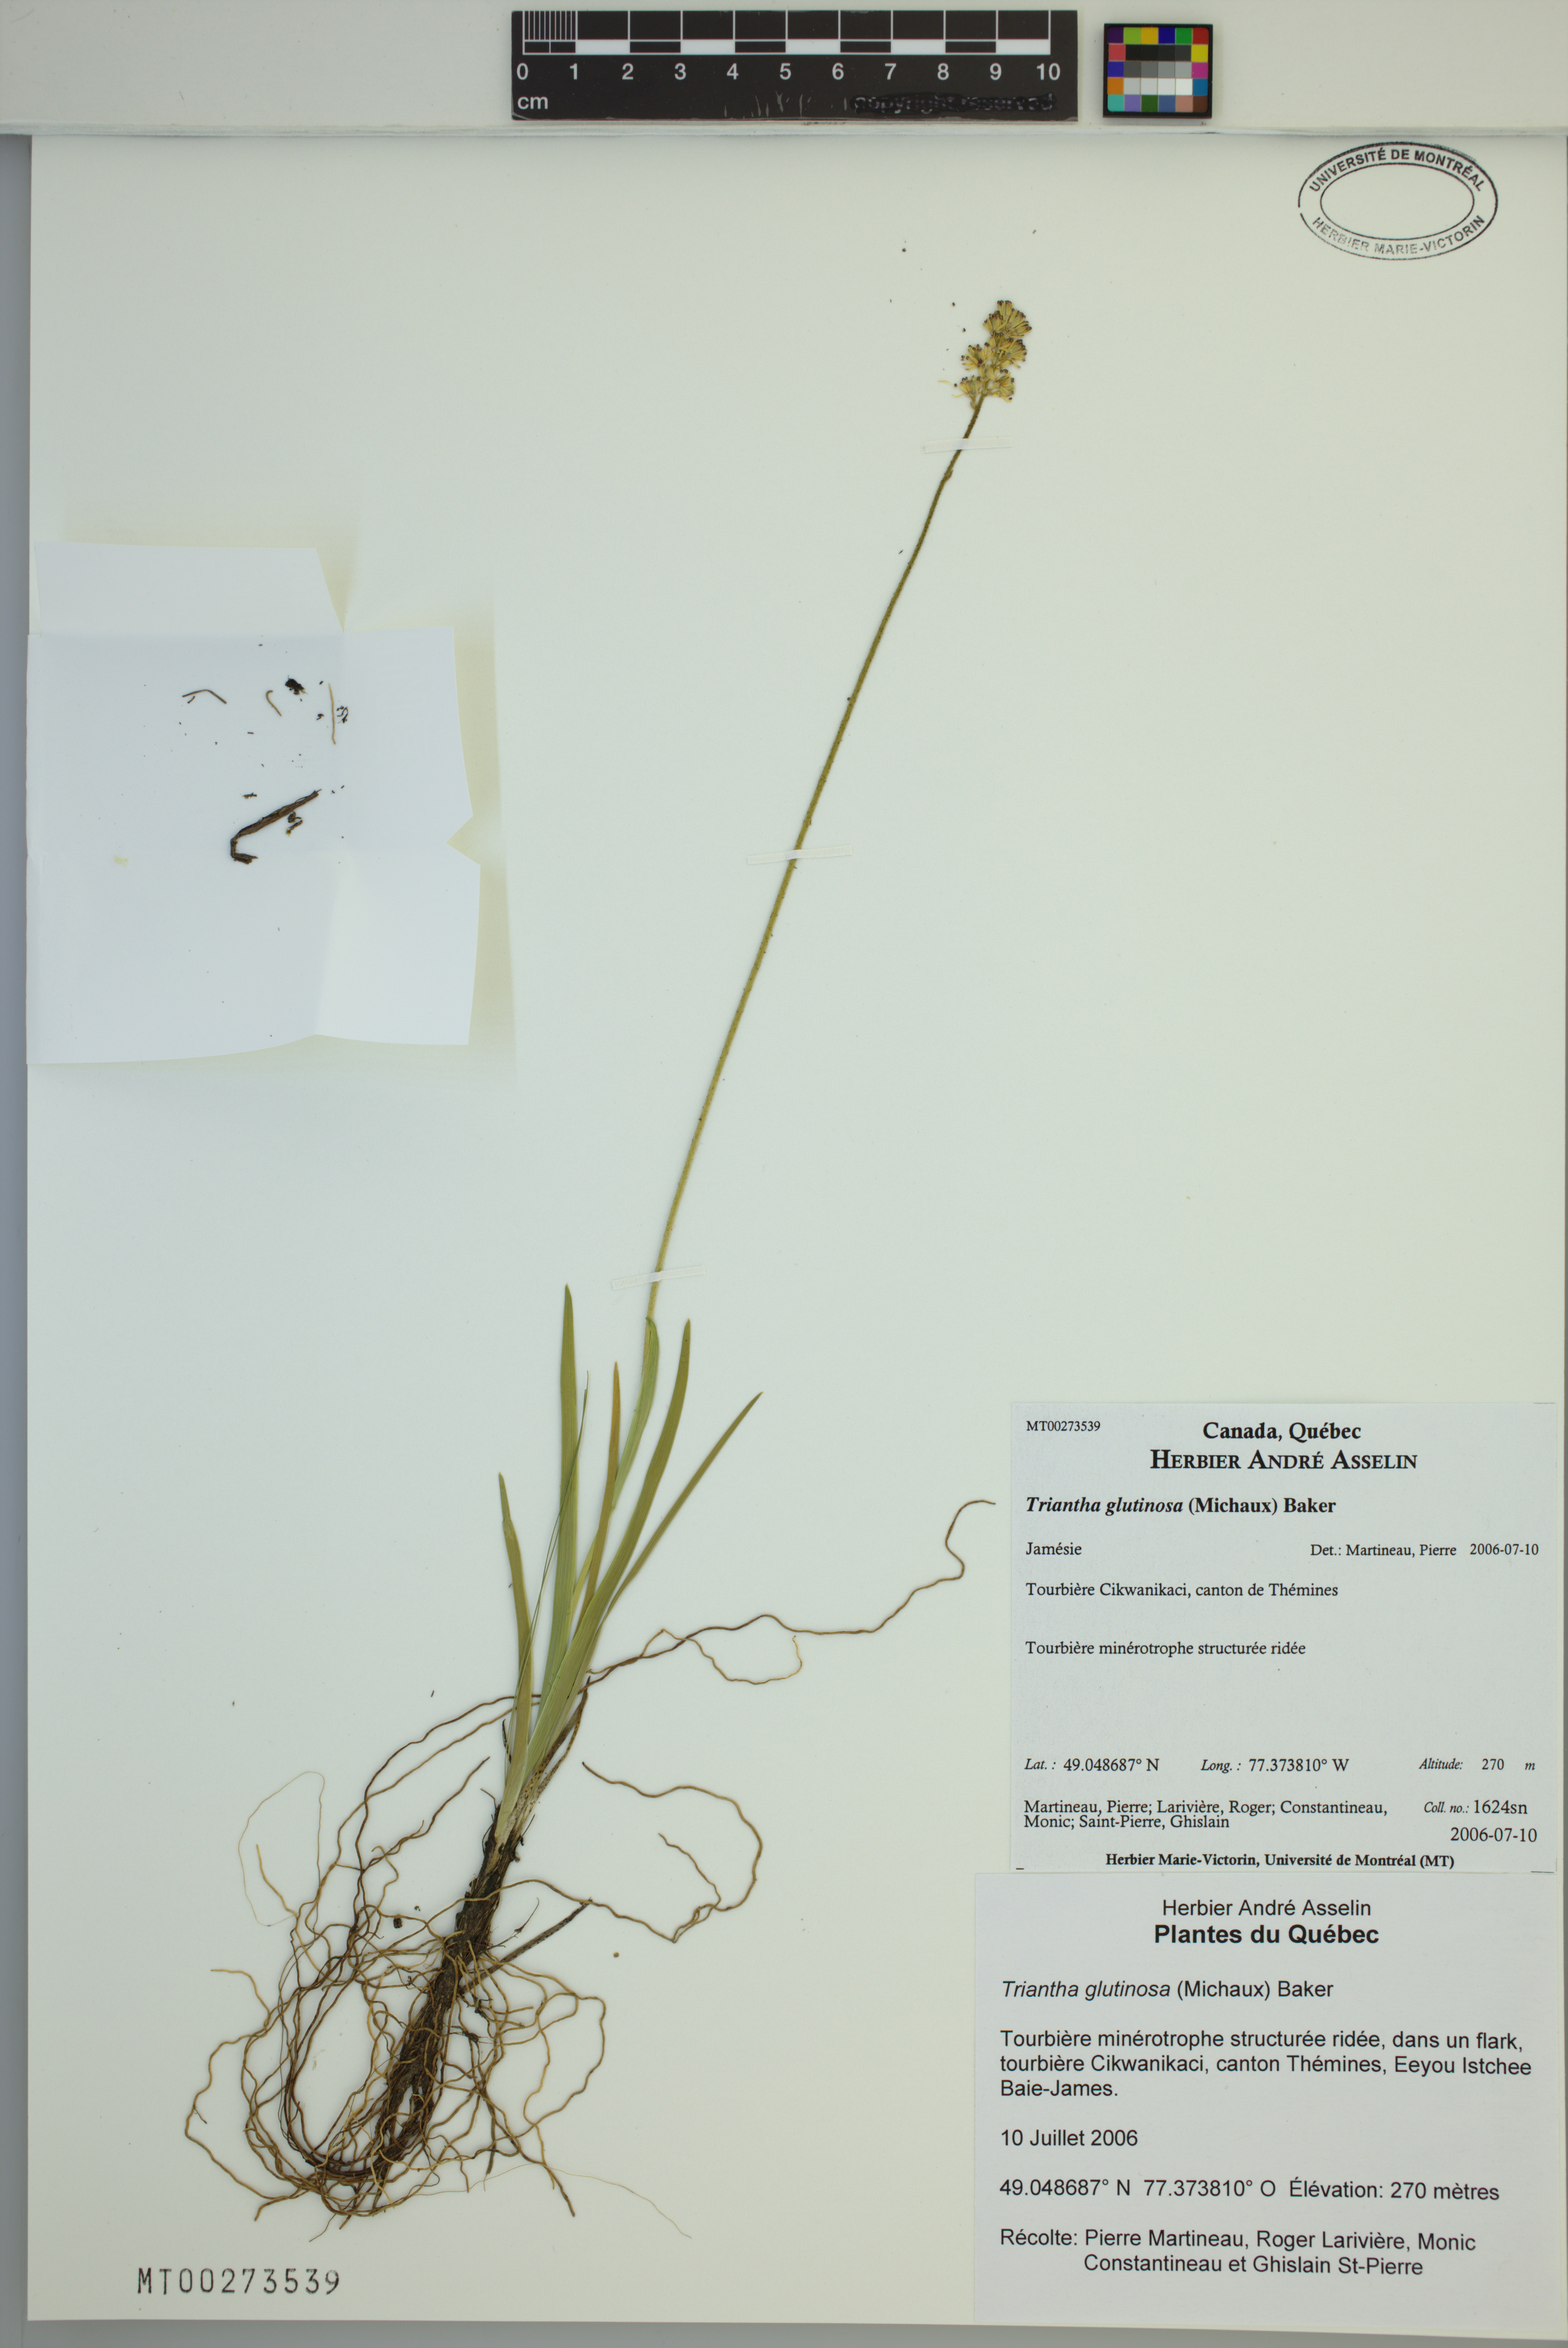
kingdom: Plantae
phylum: Tracheophyta
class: Liliopsida
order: Alismatales
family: Tofieldiaceae
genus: Triantha
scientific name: Triantha glutinosa
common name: Glutinous tofieldia
